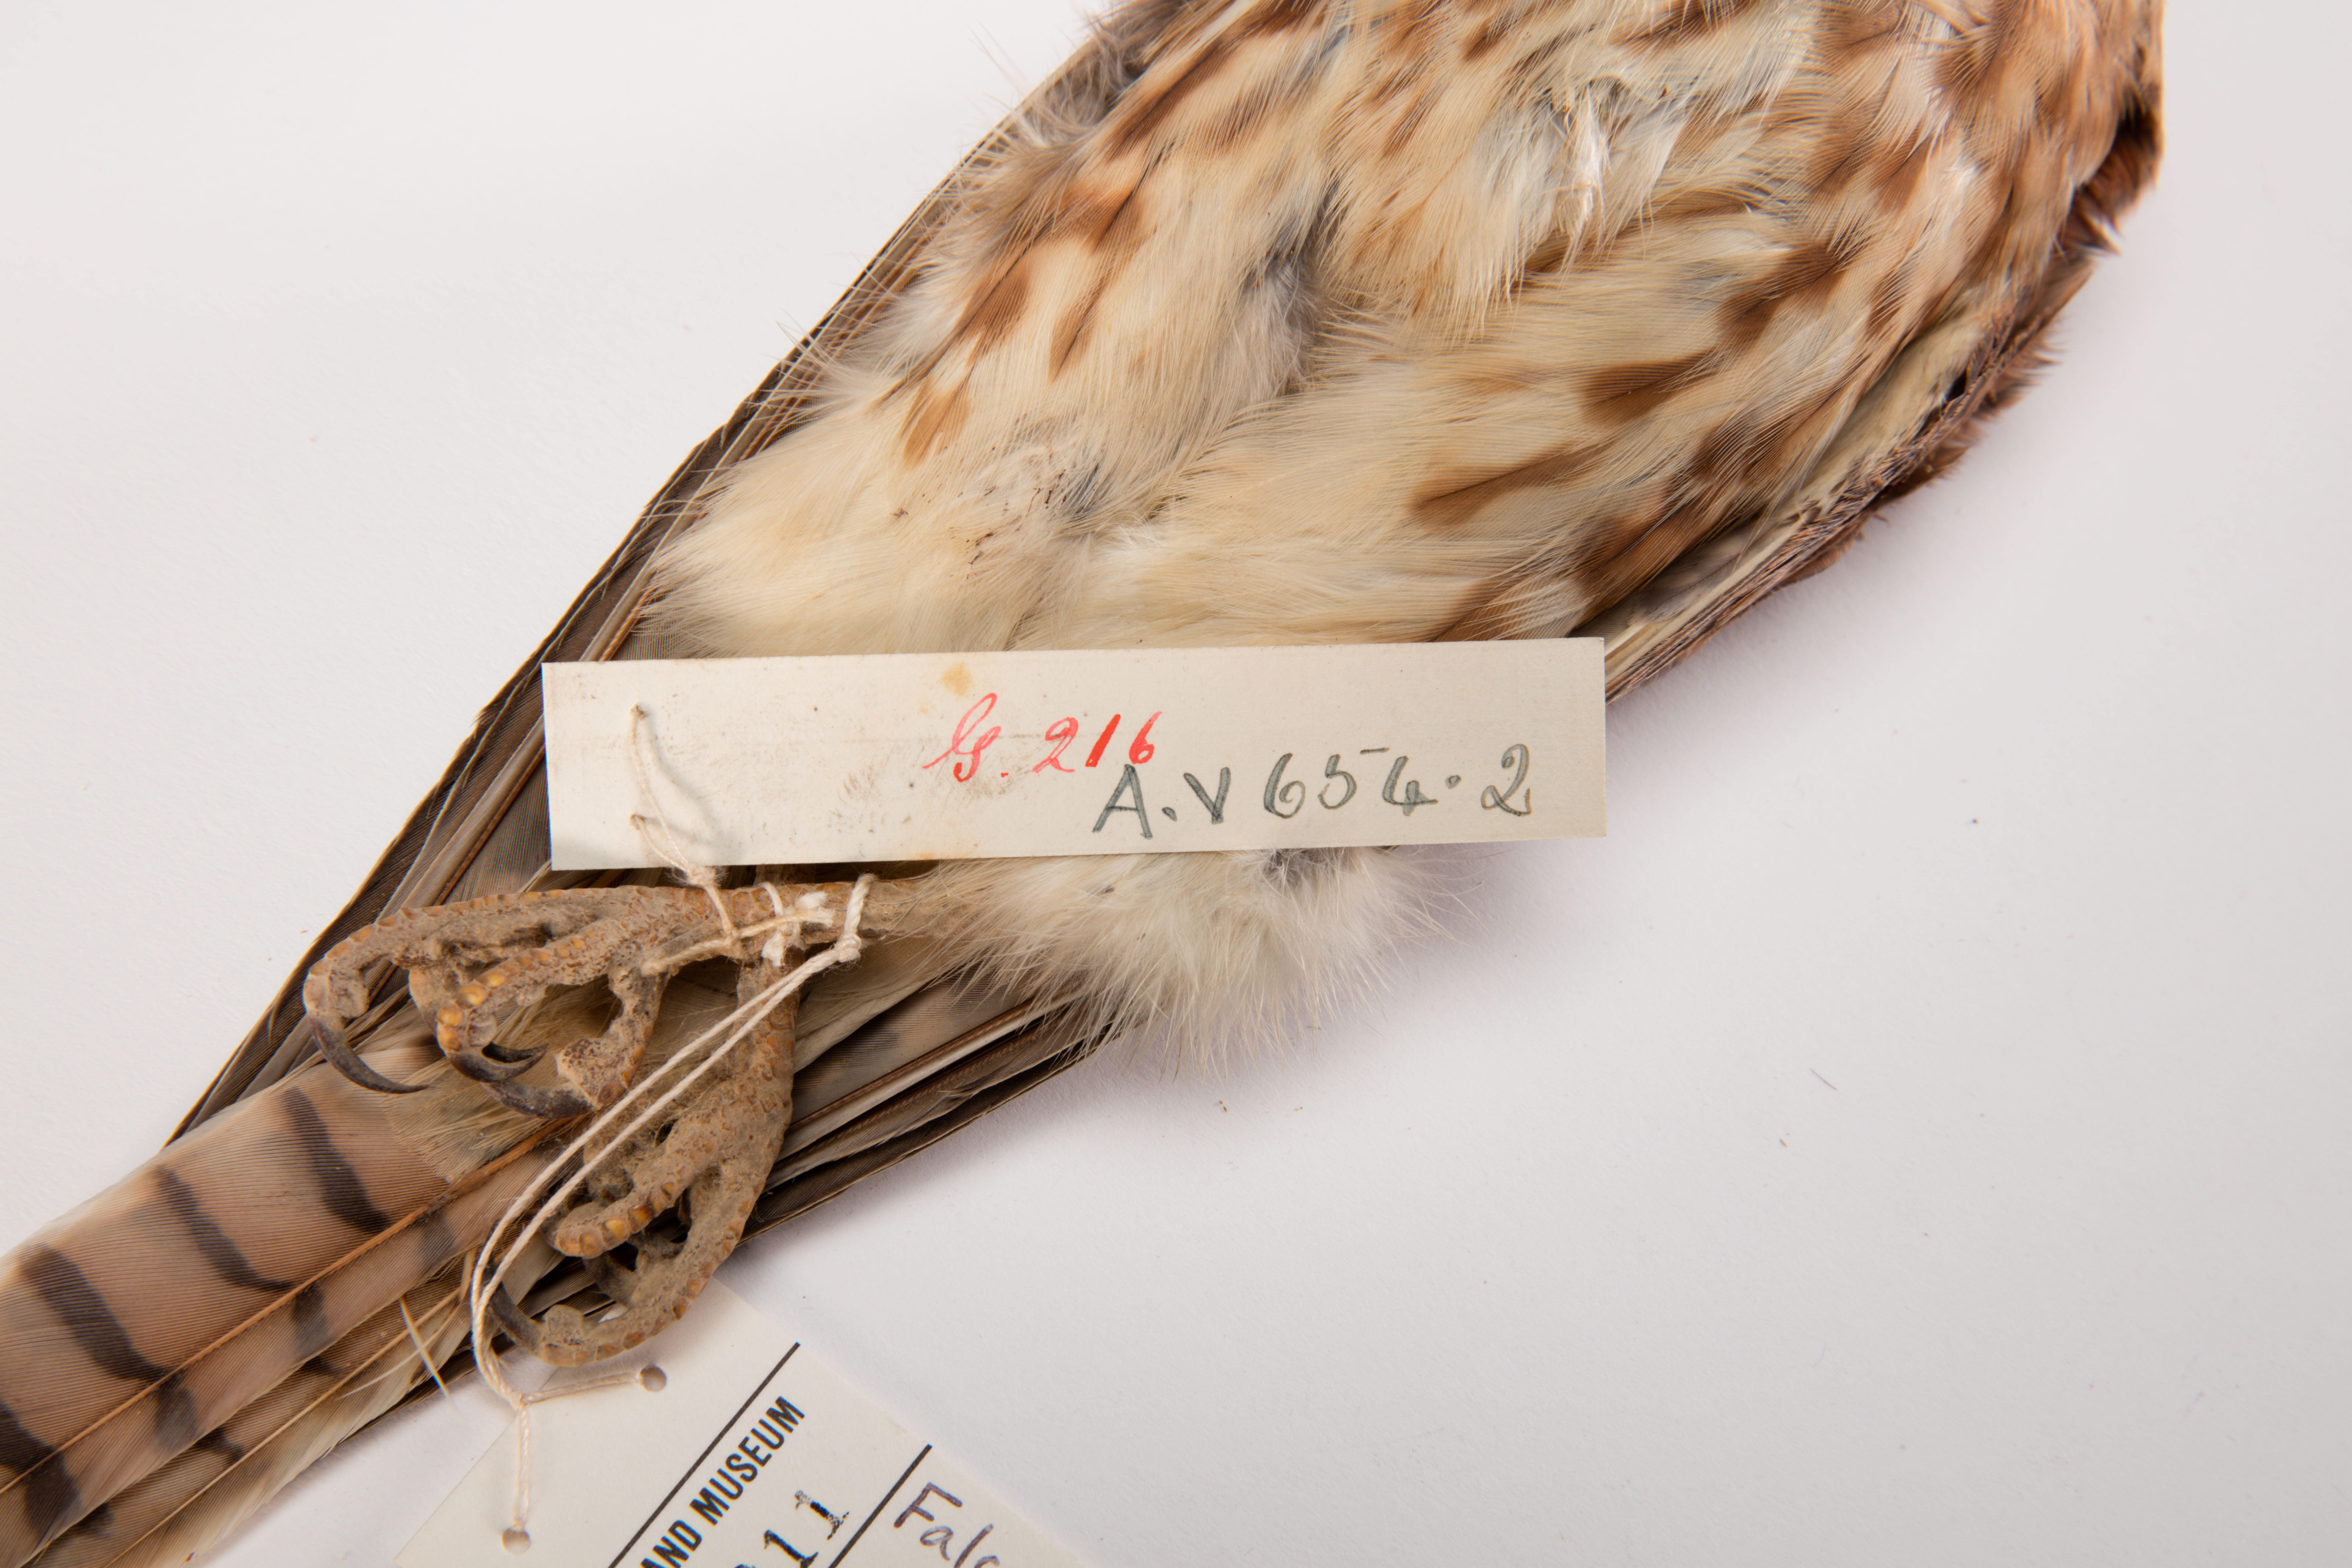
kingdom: Animalia
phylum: Chordata
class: Aves
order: Falconiformes
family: Falconidae
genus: Falco
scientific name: Falco sparverius
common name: American kestrel
